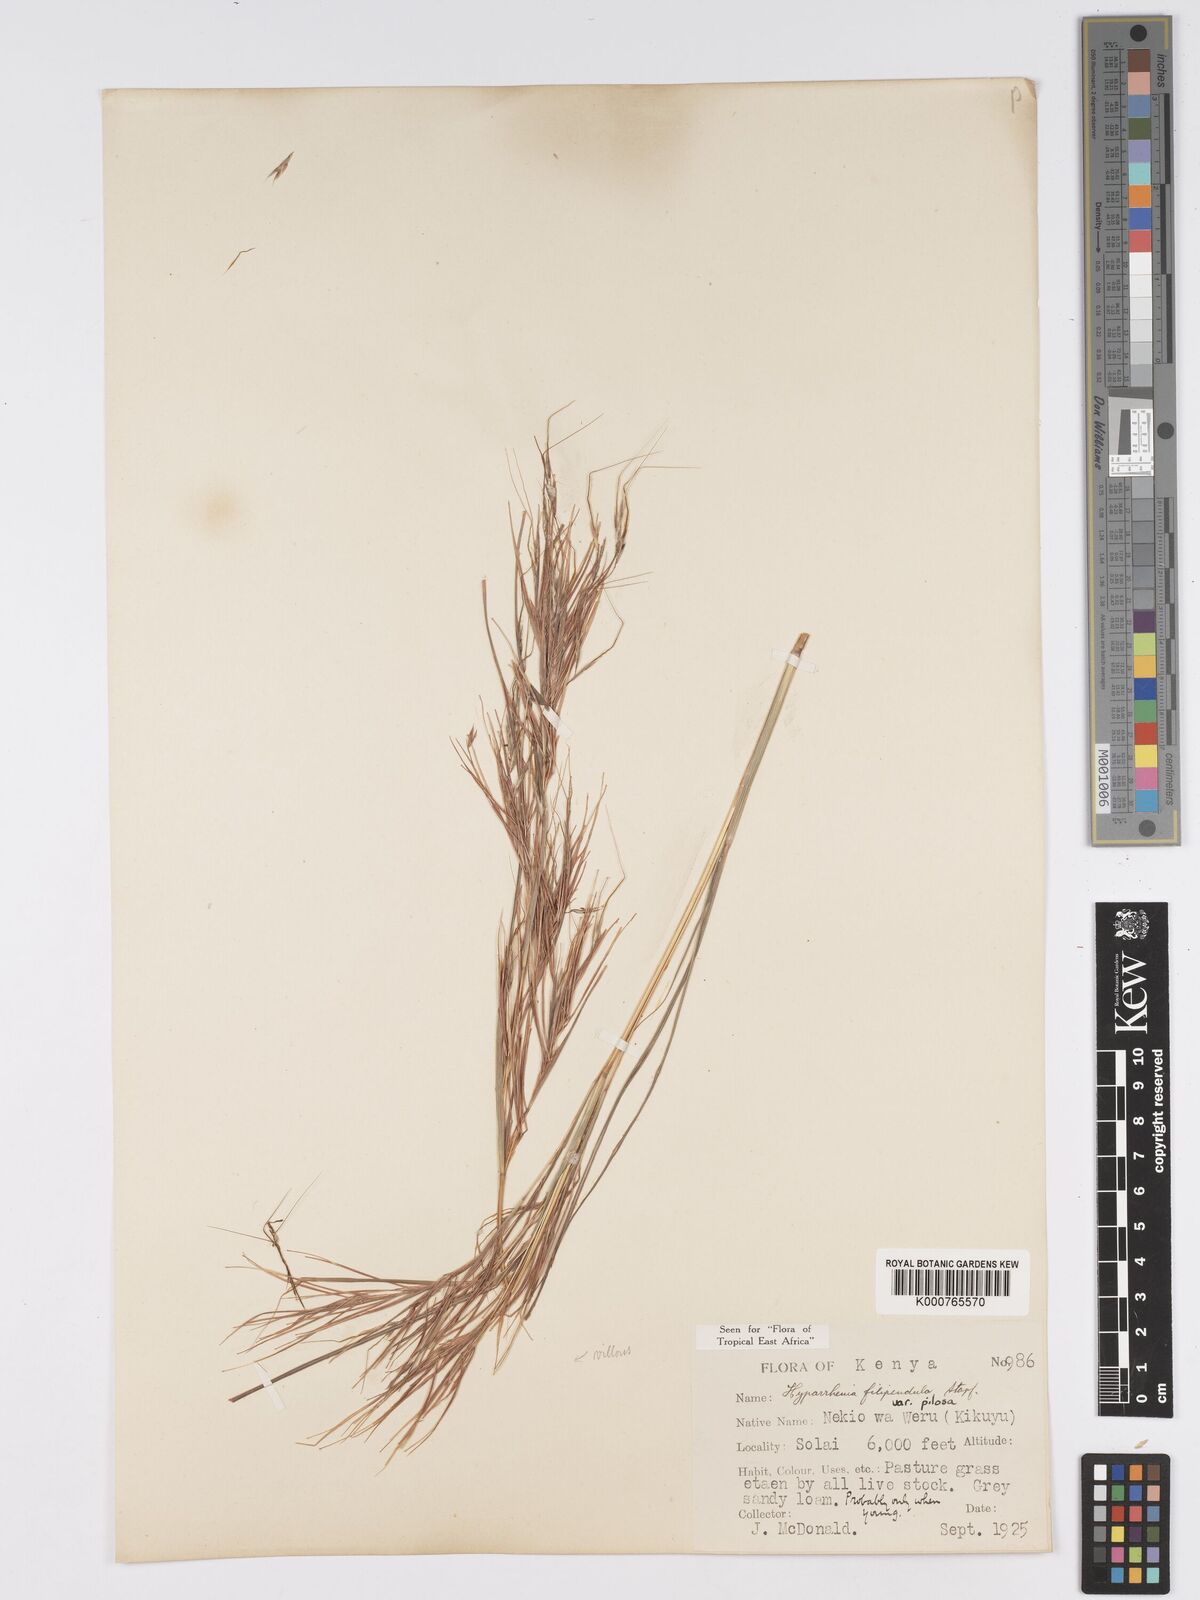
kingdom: Plantae
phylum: Tracheophyta
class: Liliopsida
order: Poales
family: Poaceae
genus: Hyparrhenia
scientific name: Hyparrhenia filipendula
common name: Tambookie grass
